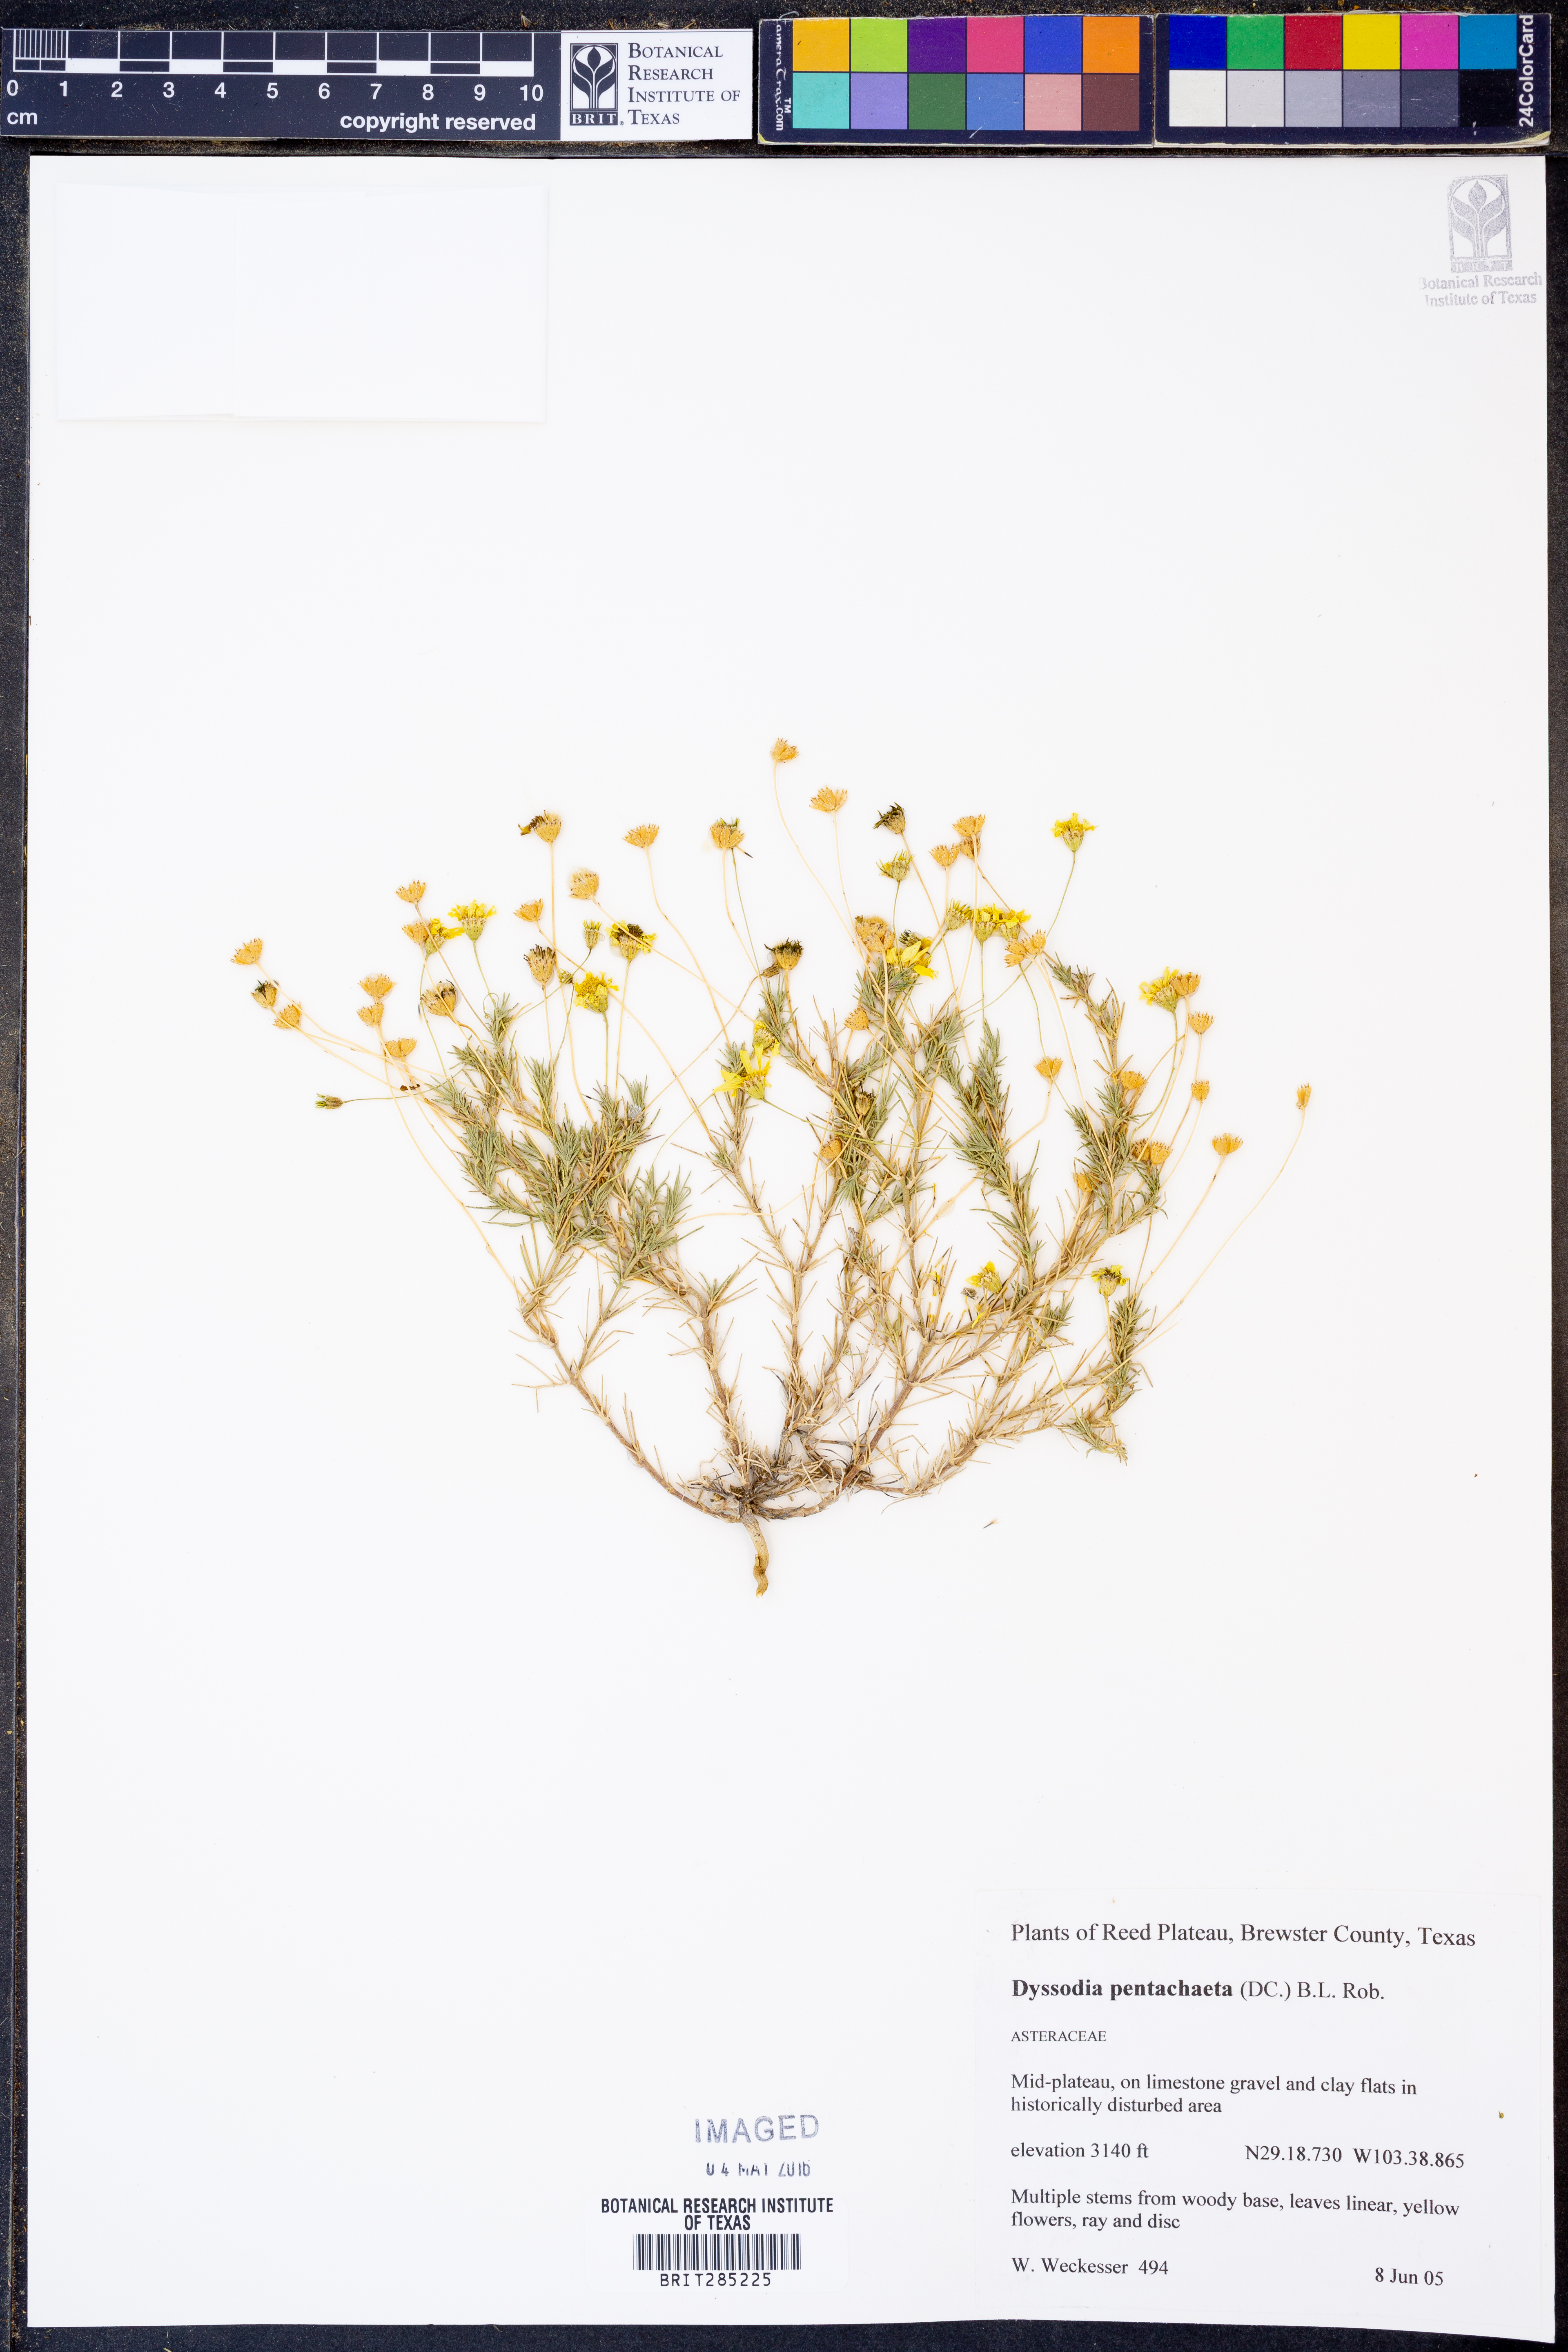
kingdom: Plantae
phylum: Tracheophyta
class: Magnoliopsida
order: Asterales
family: Asteraceae
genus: Thymophylla
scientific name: Thymophylla pentachaeta
